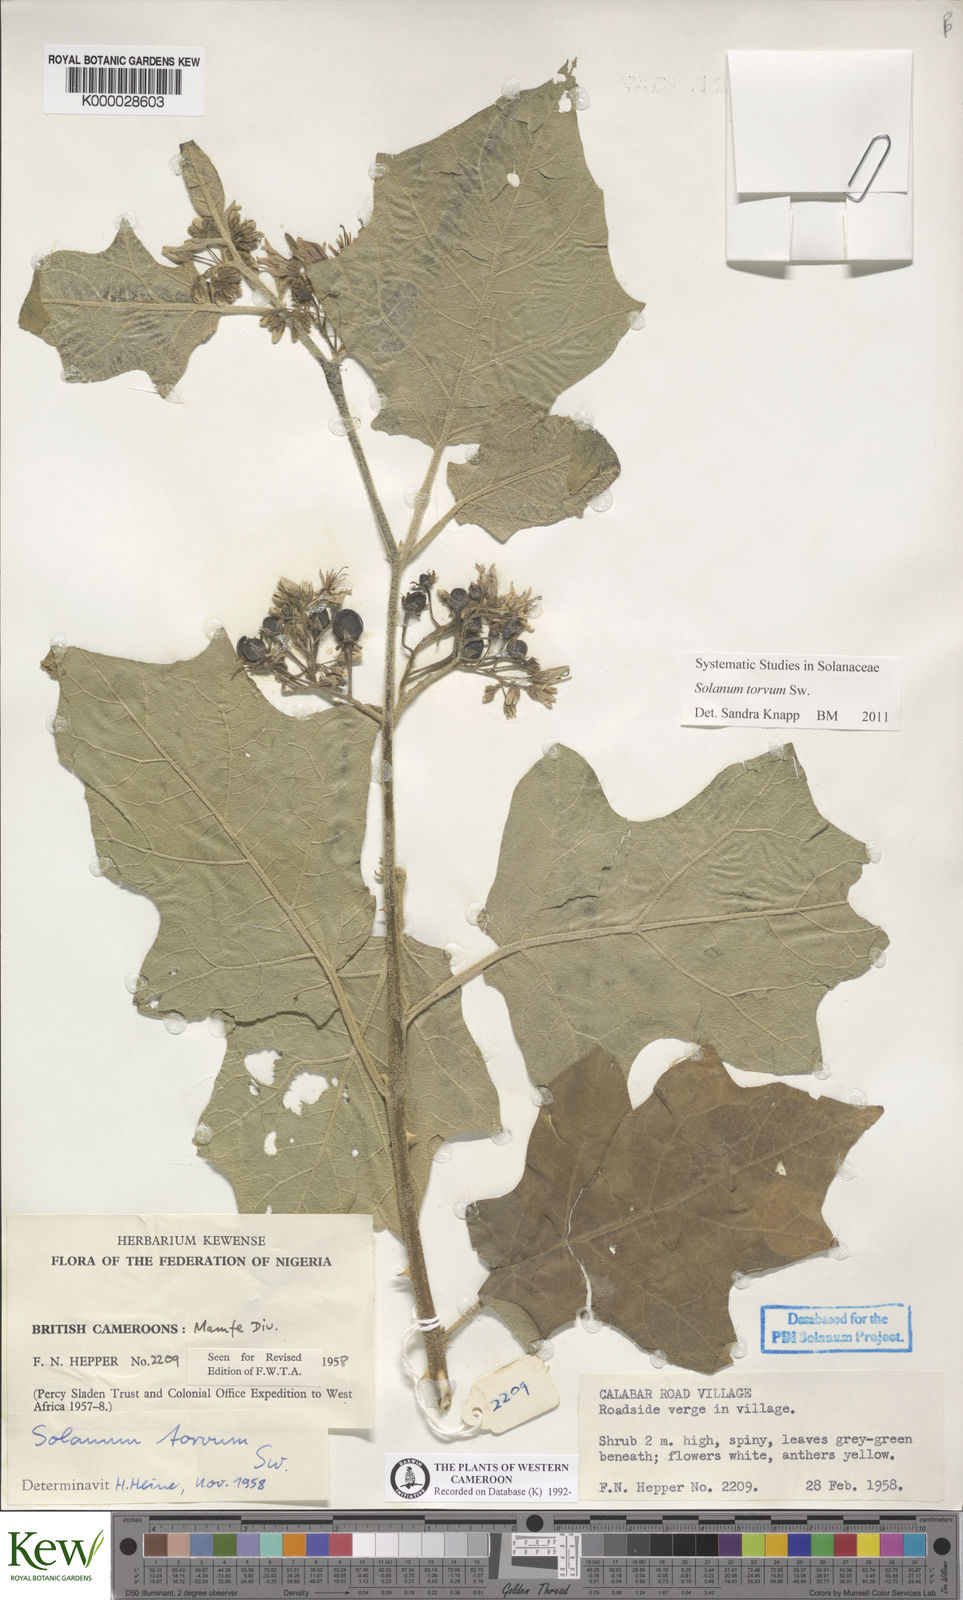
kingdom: Plantae
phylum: Tracheophyta
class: Magnoliopsida
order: Solanales
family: Solanaceae
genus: Solanum
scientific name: Solanum torvum
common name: Turkey berry
